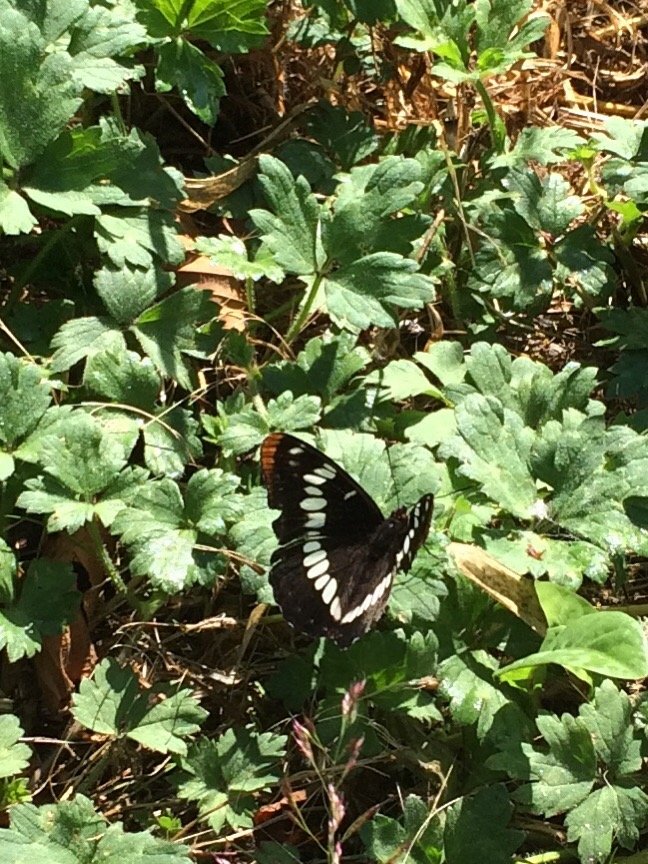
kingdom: Animalia
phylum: Arthropoda
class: Insecta
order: Lepidoptera
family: Nymphalidae
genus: Limenitis
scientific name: Limenitis lorquini
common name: Lorquin's Admiral
